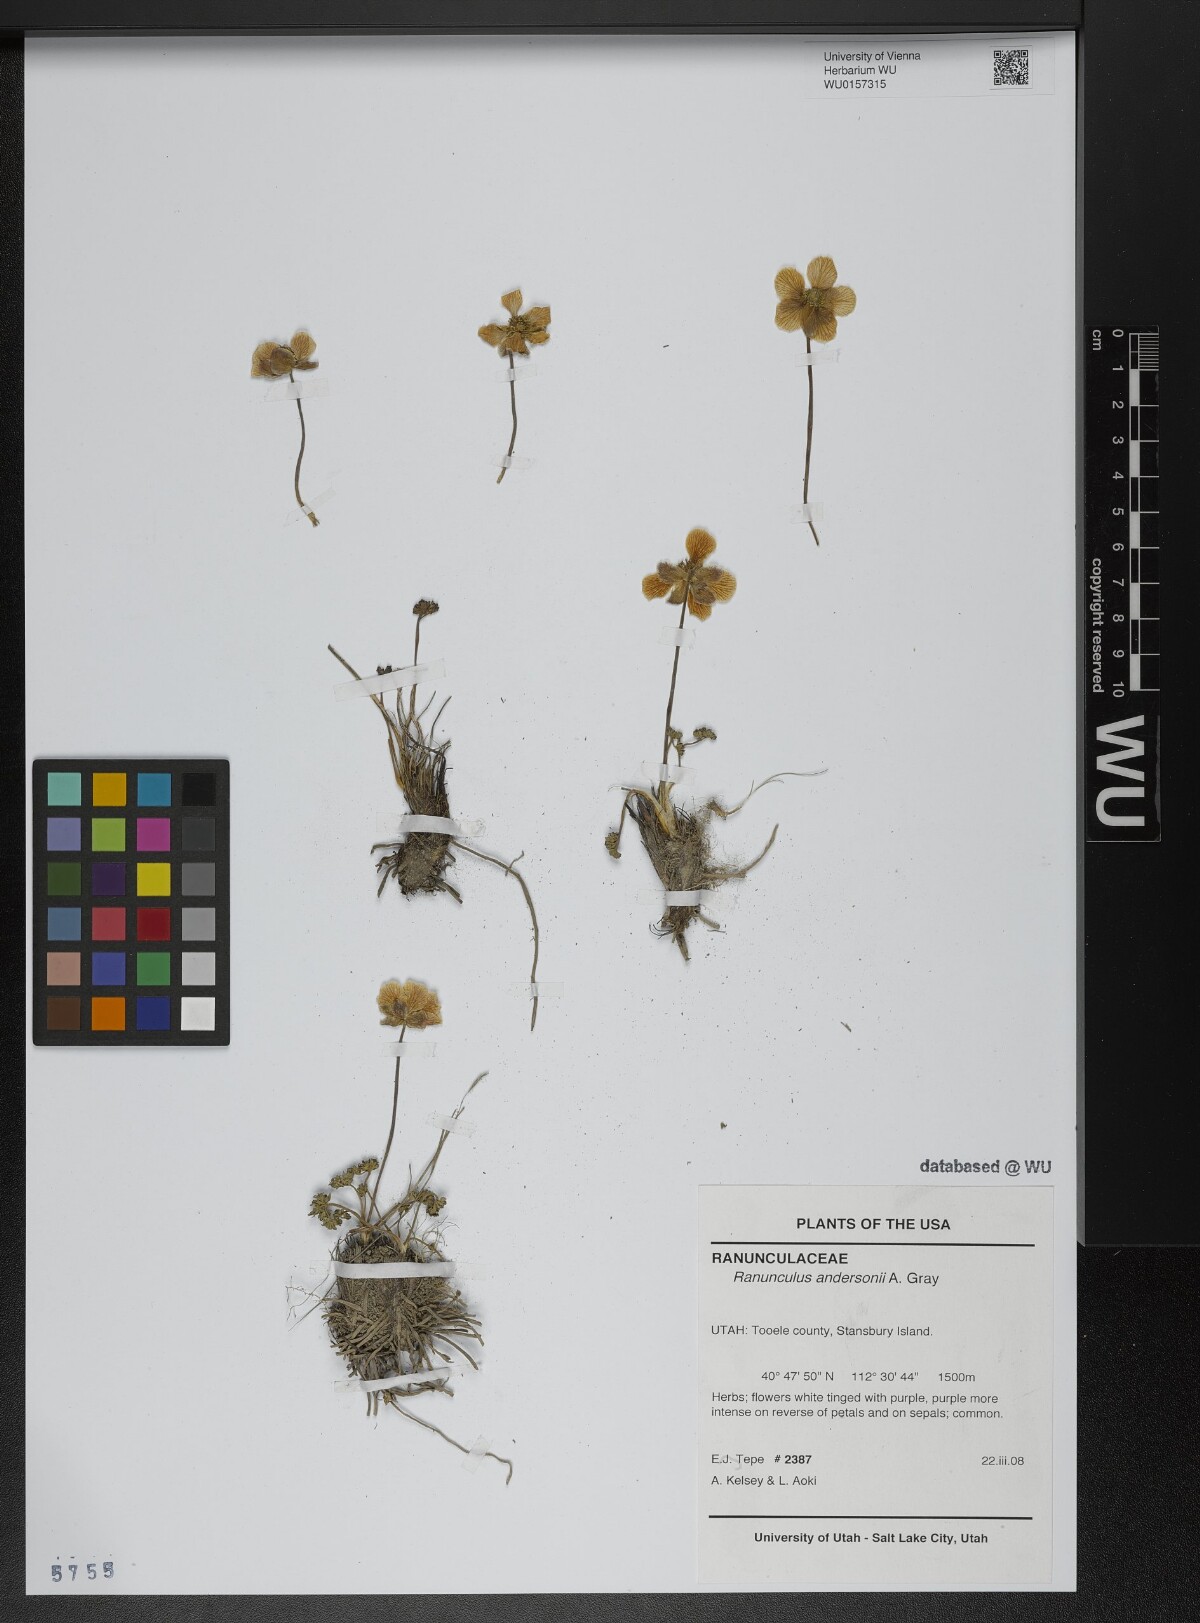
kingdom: Plantae
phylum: Tracheophyta
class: Magnoliopsida
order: Ranunculales
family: Ranunculaceae
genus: Beckwithia
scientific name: Beckwithia andersonii
